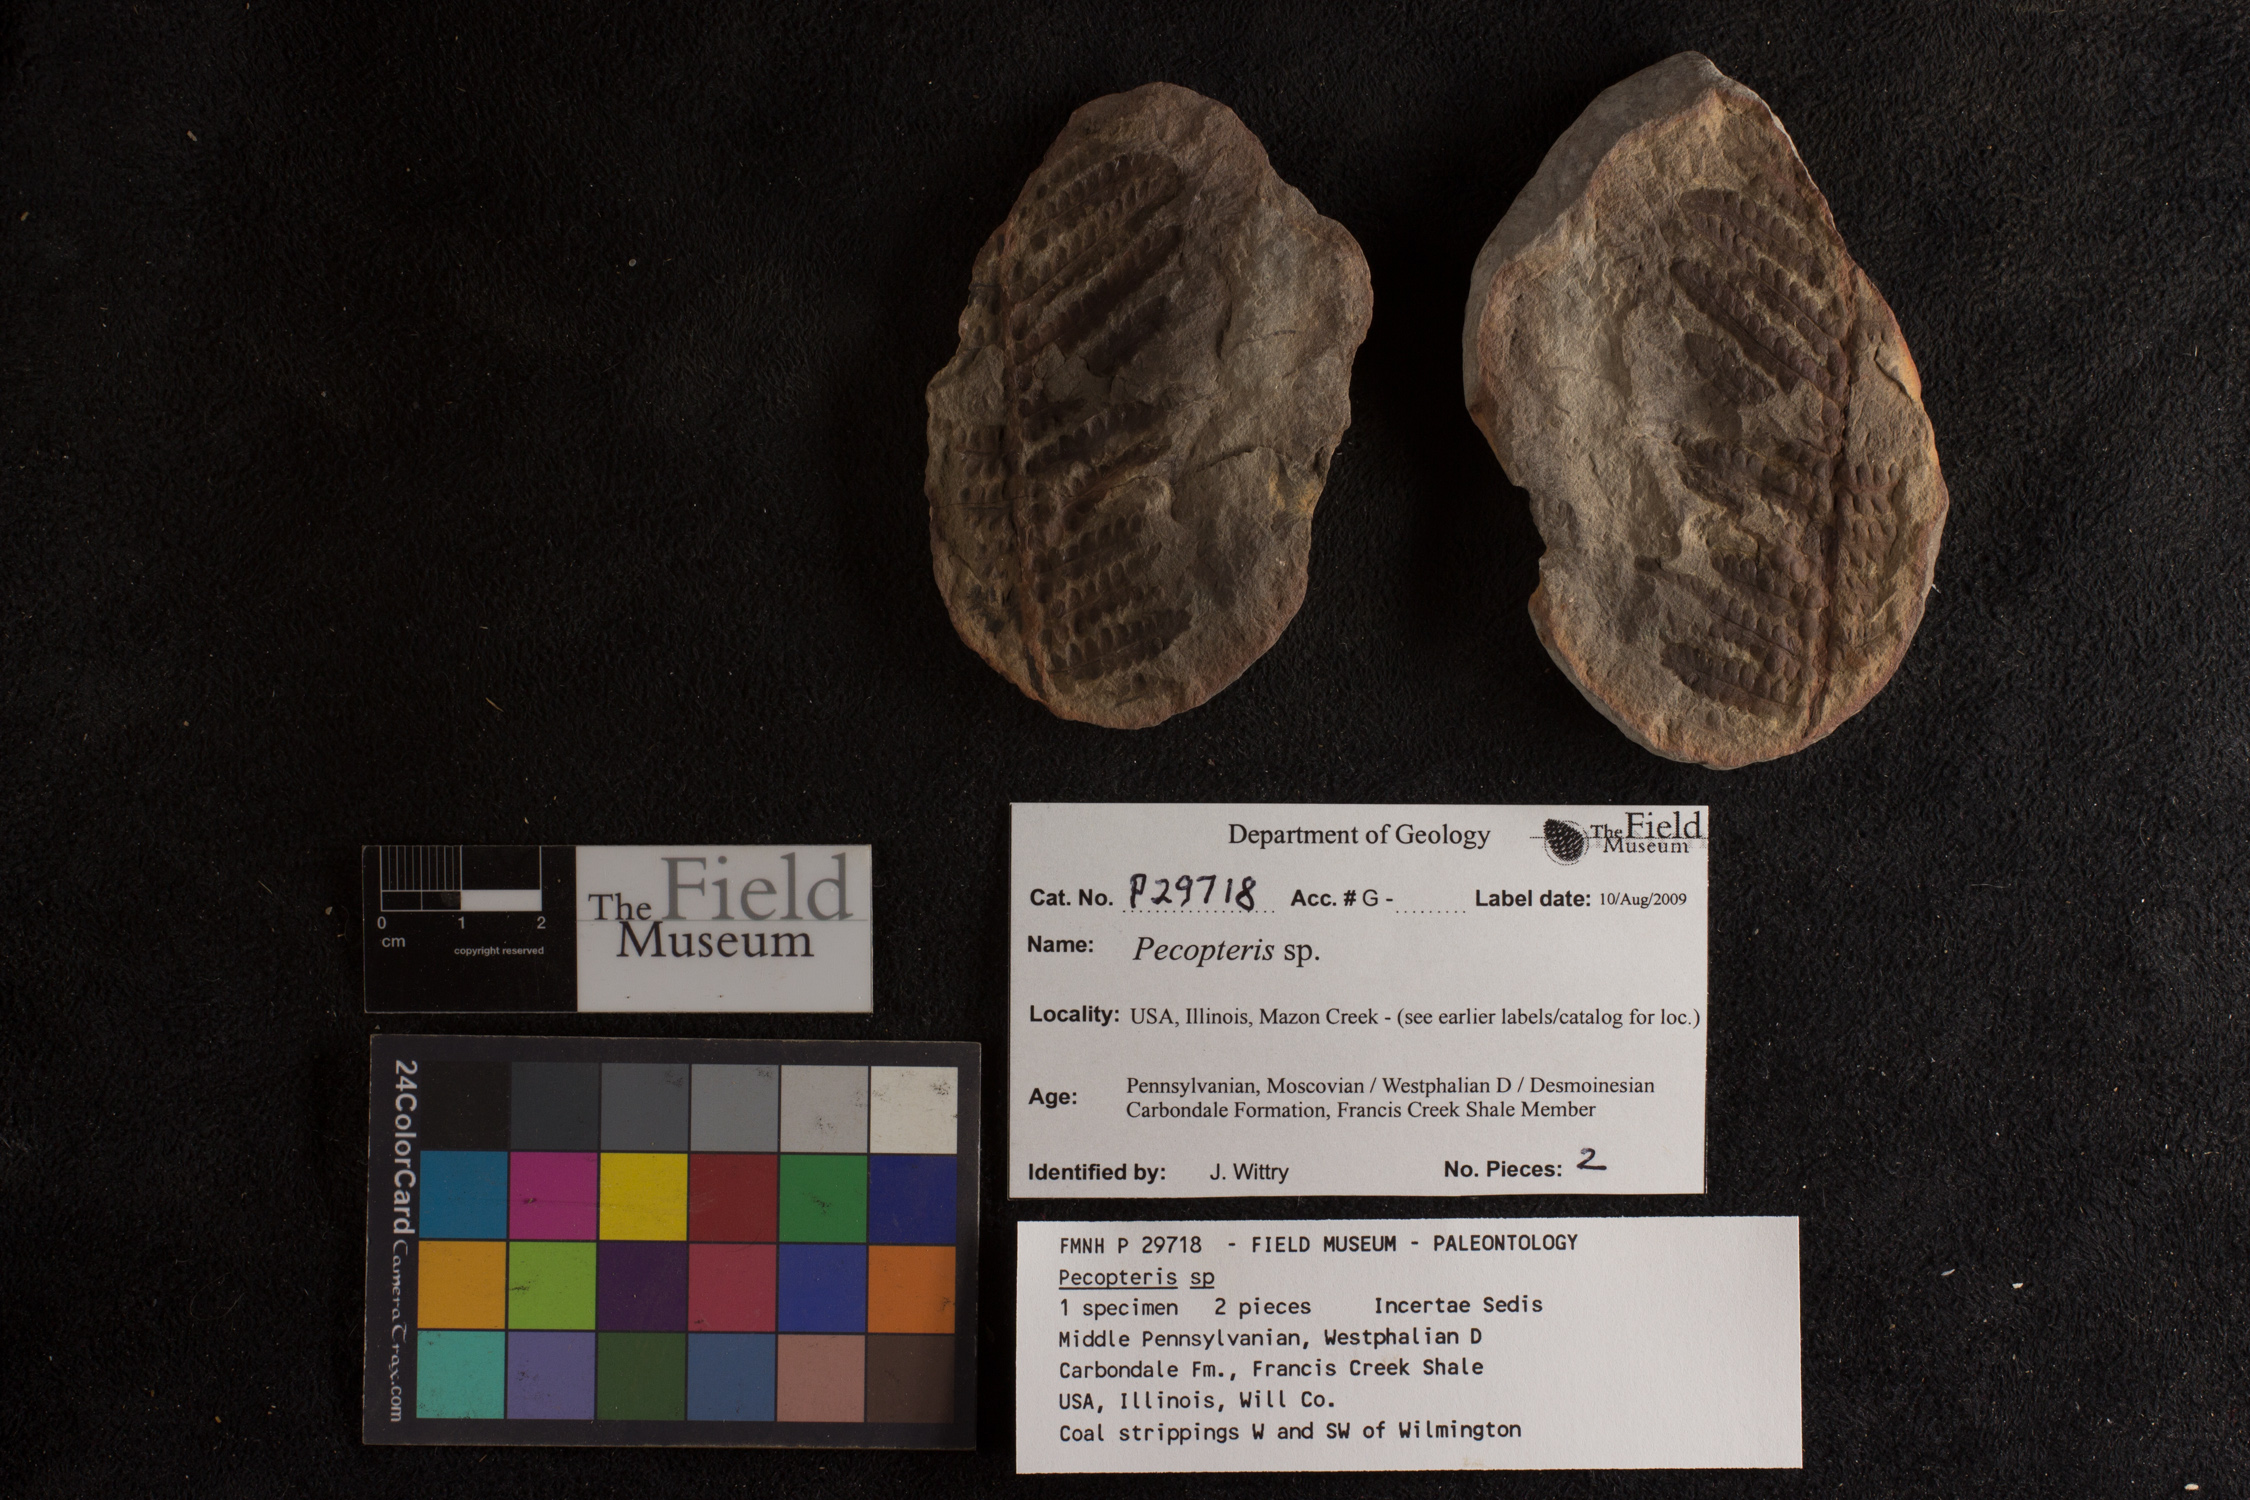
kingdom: Plantae
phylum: Tracheophyta
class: Polypodiopsida
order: Marattiales
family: Asterothecaceae
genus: Pecopteris
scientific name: Pecopteris
